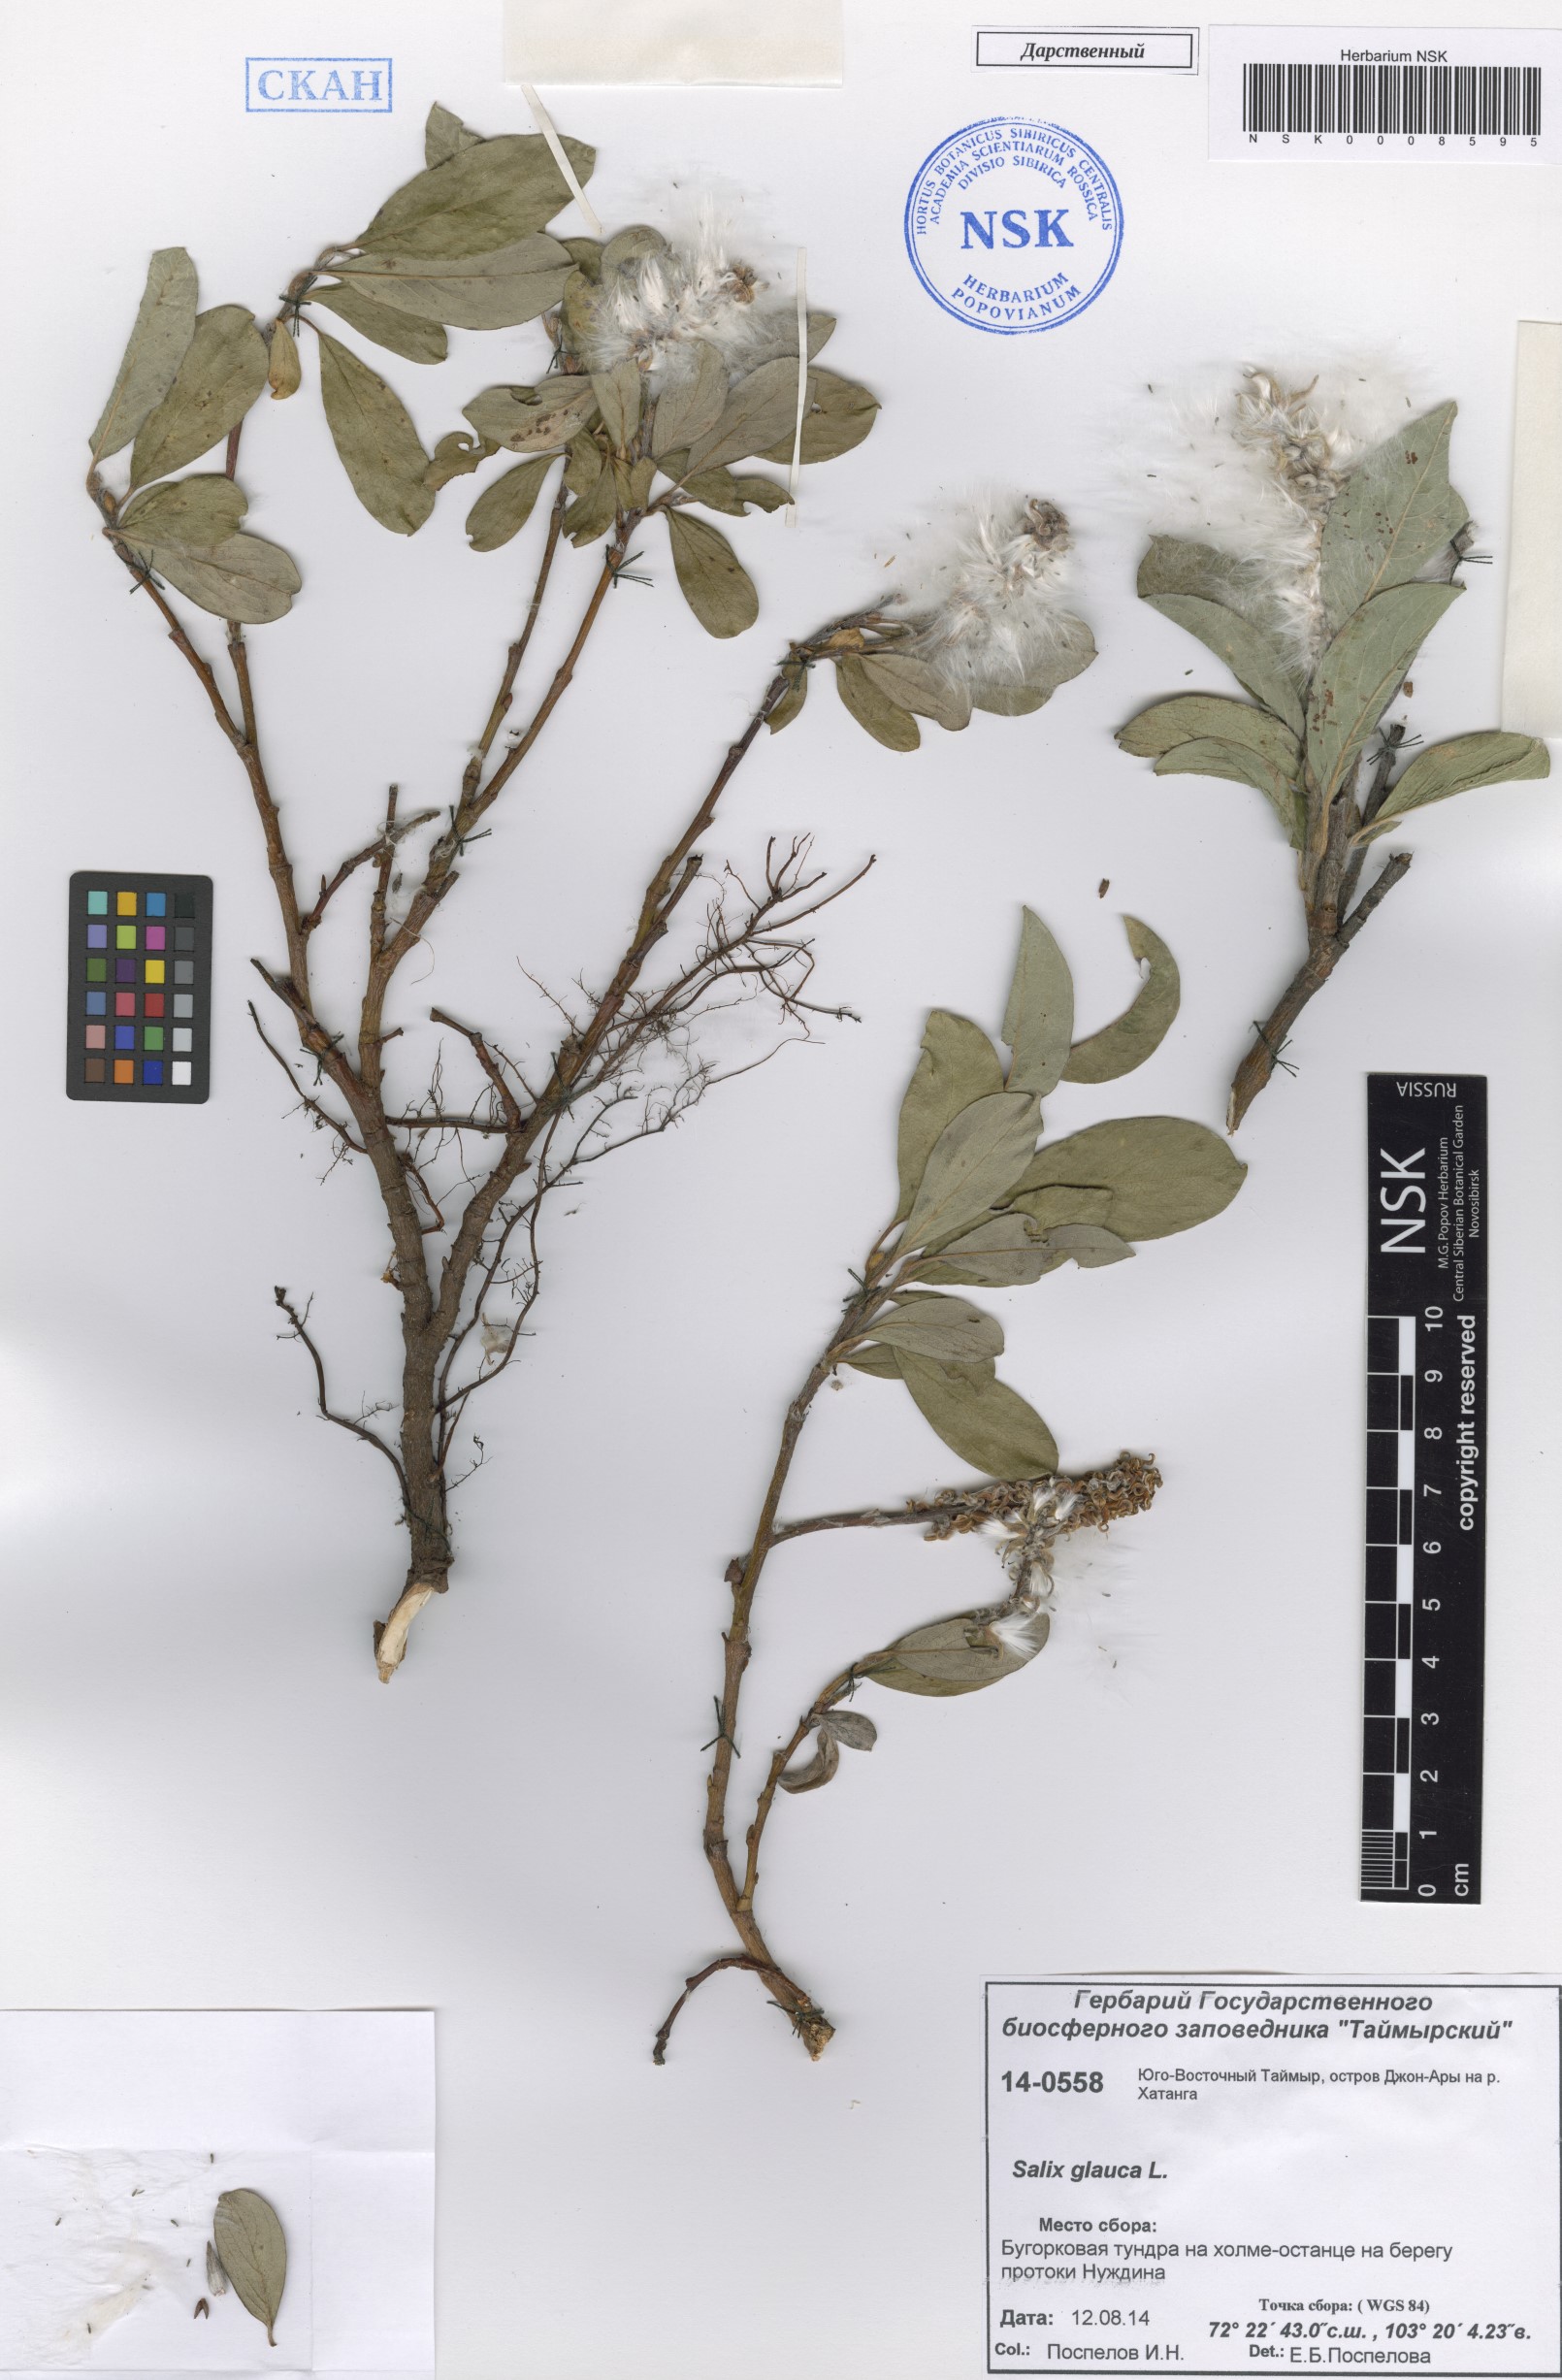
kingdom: Plantae
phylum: Tracheophyta
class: Magnoliopsida
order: Malpighiales
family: Salicaceae
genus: Salix
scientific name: Salix glauca
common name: Glaucous willow
